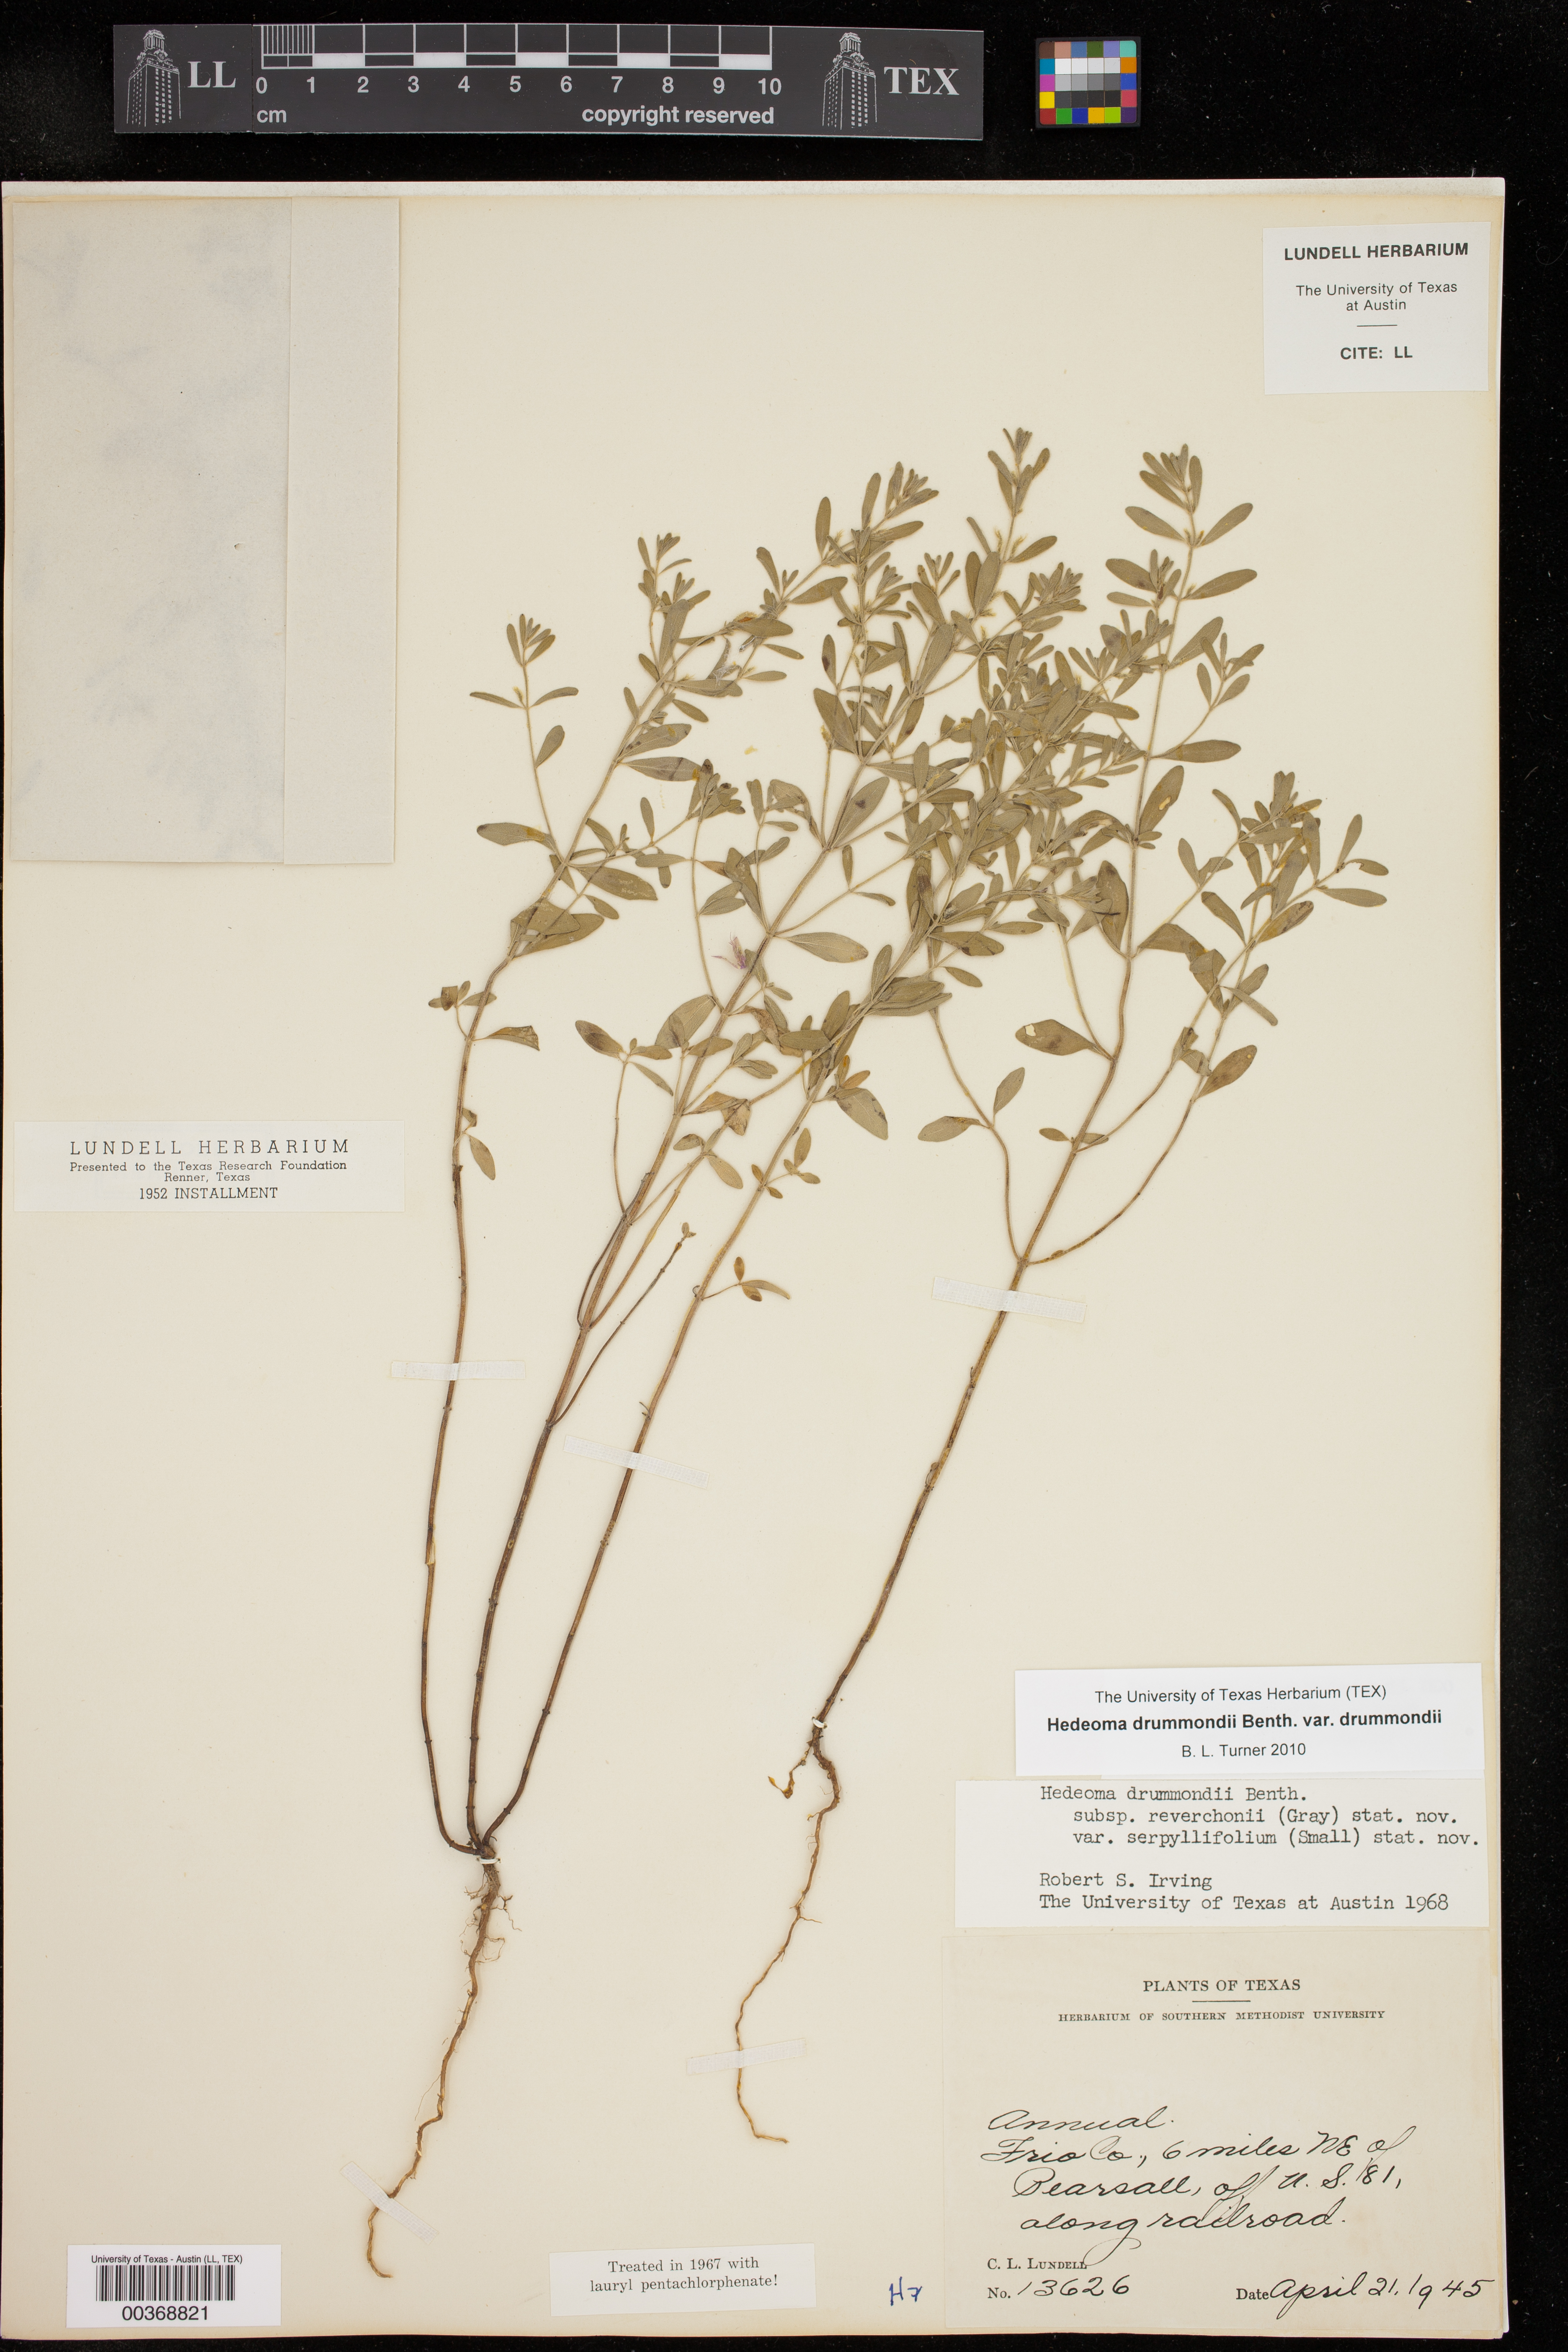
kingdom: Plantae
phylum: Tracheophyta
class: Magnoliopsida
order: Lamiales
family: Lamiaceae
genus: Hedeoma
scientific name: Hedeoma serpyllifolia
